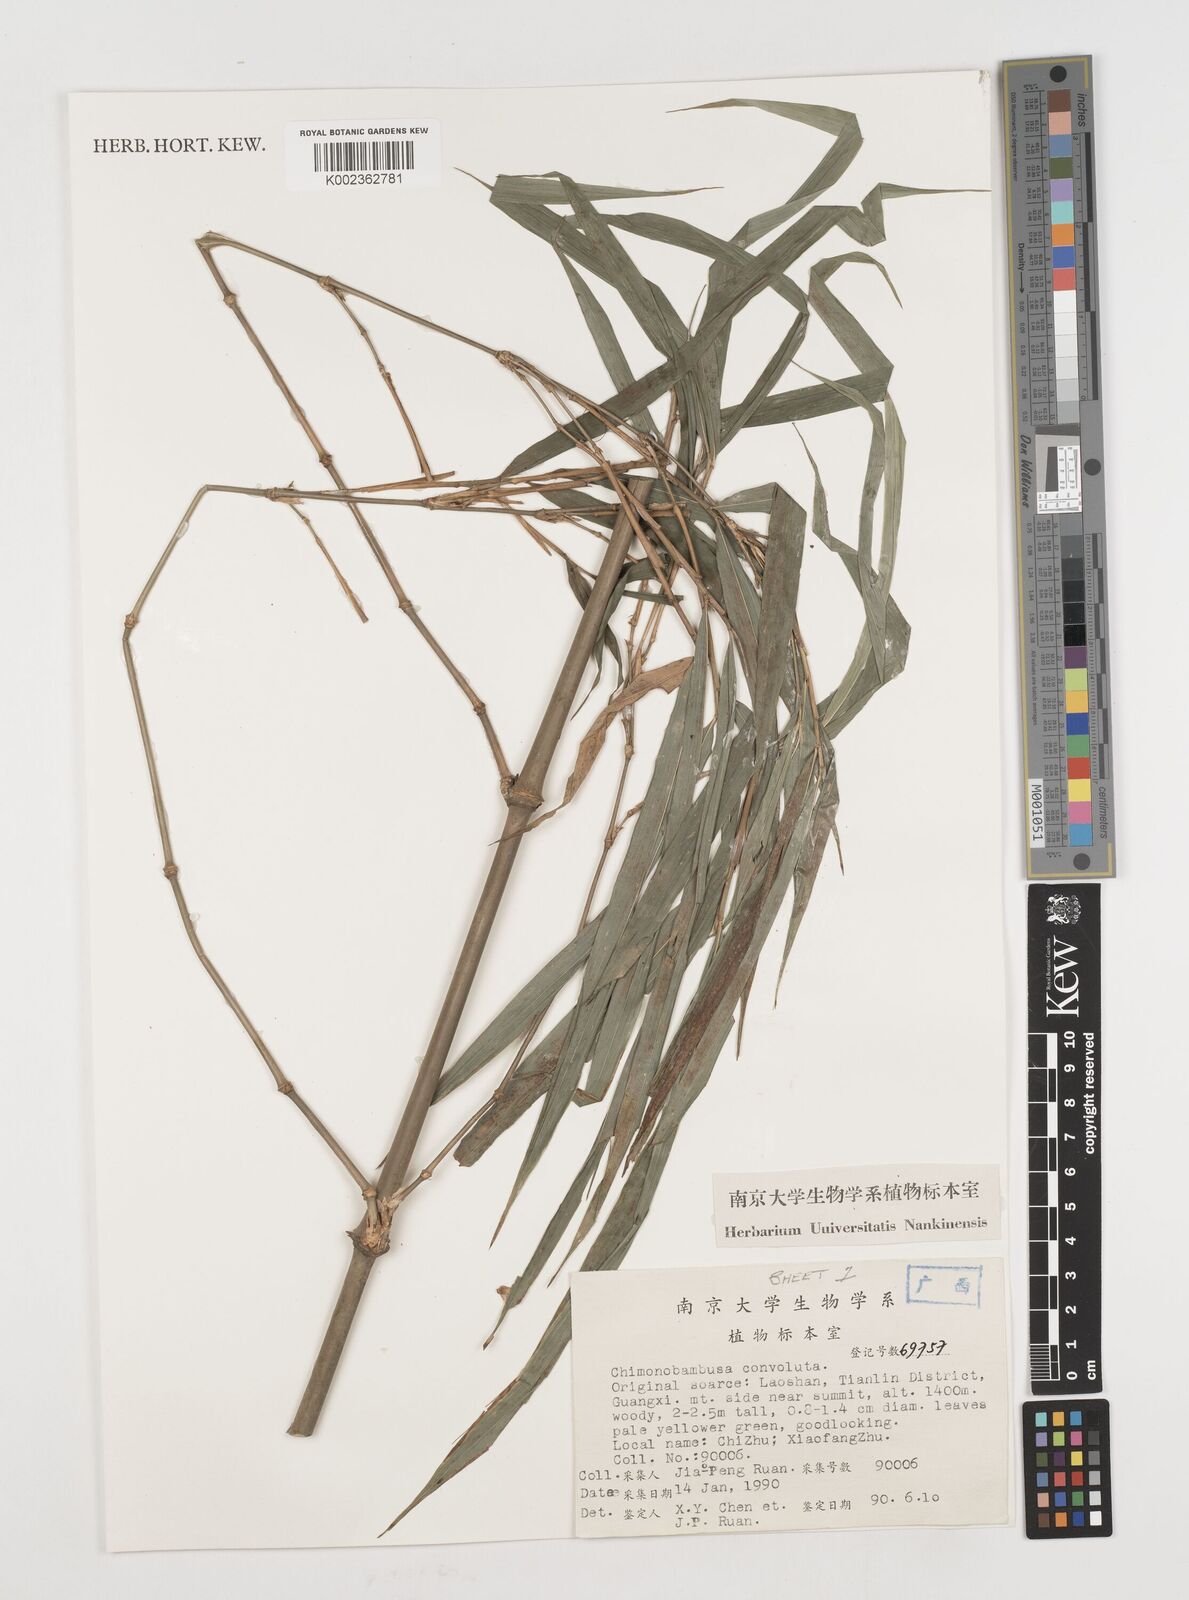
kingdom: Plantae
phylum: Tracheophyta
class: Liliopsida
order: Poales
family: Poaceae
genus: Chimonobambusa
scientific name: Chimonobambusa convoluta
